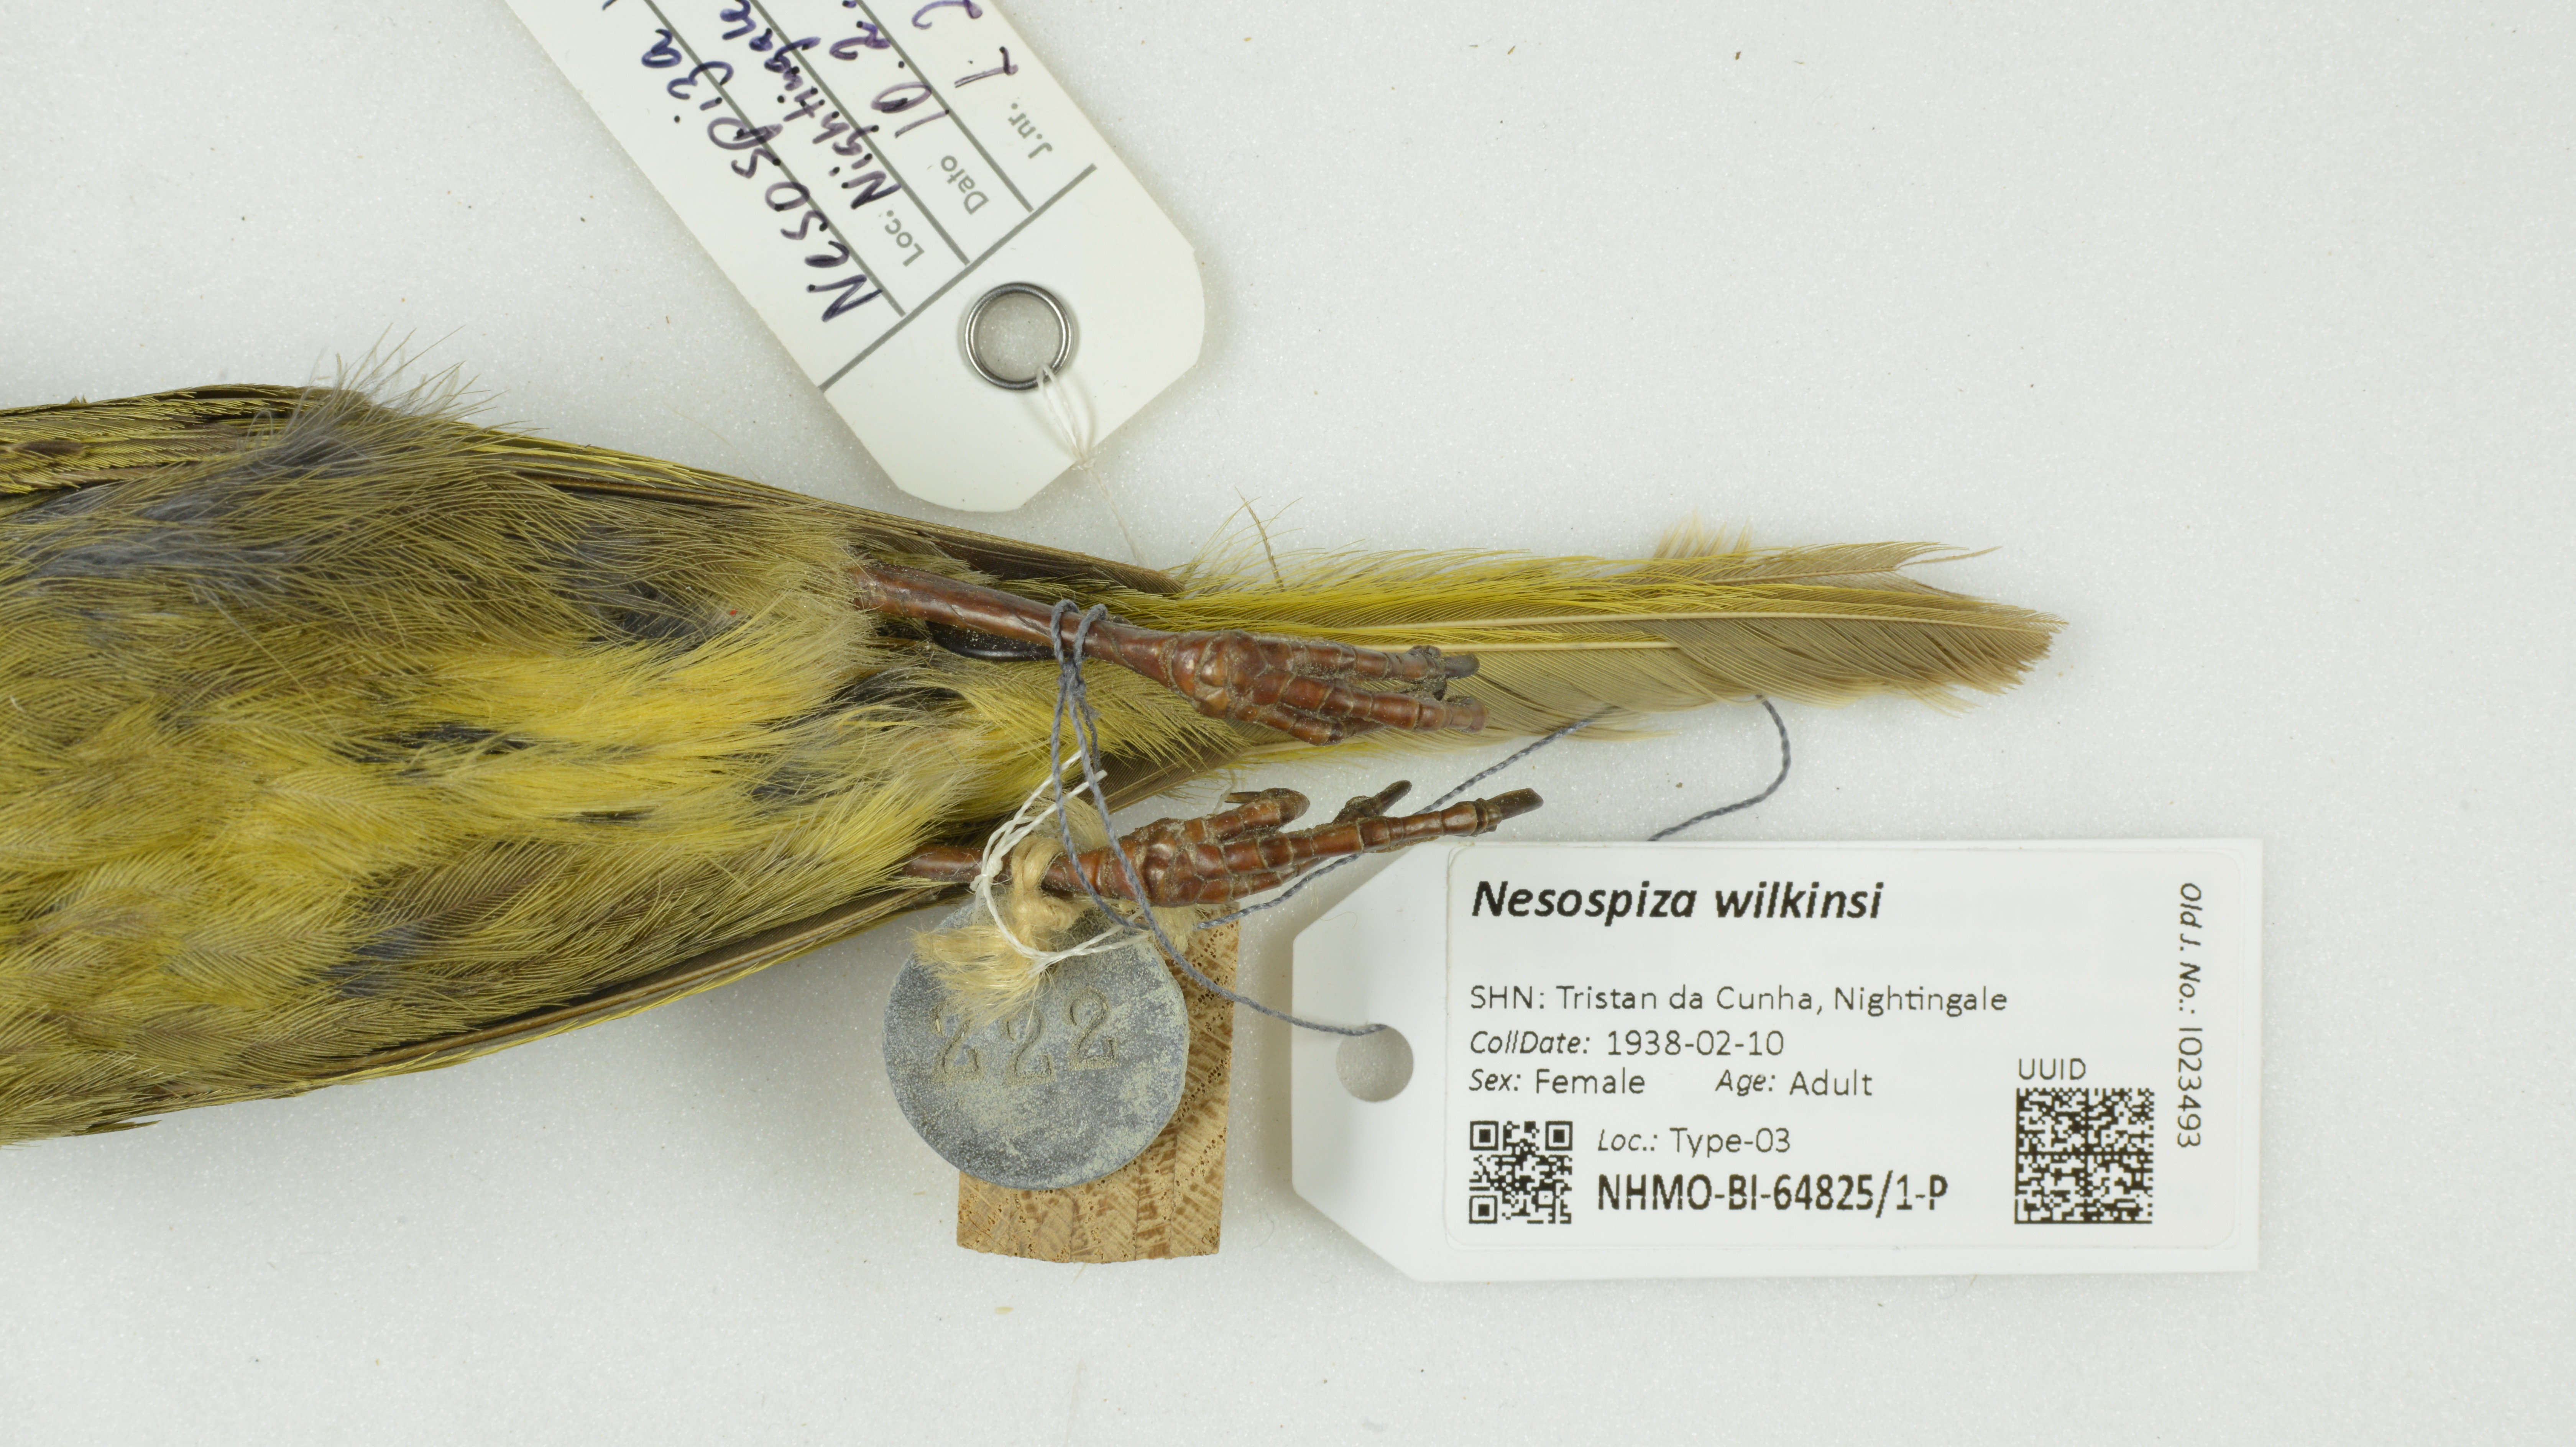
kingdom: Animalia
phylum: Chordata
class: Aves
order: Passeriformes
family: Thraupidae
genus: Nesospiza
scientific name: Nesospiza wilkinsi
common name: Wilkins's finch
